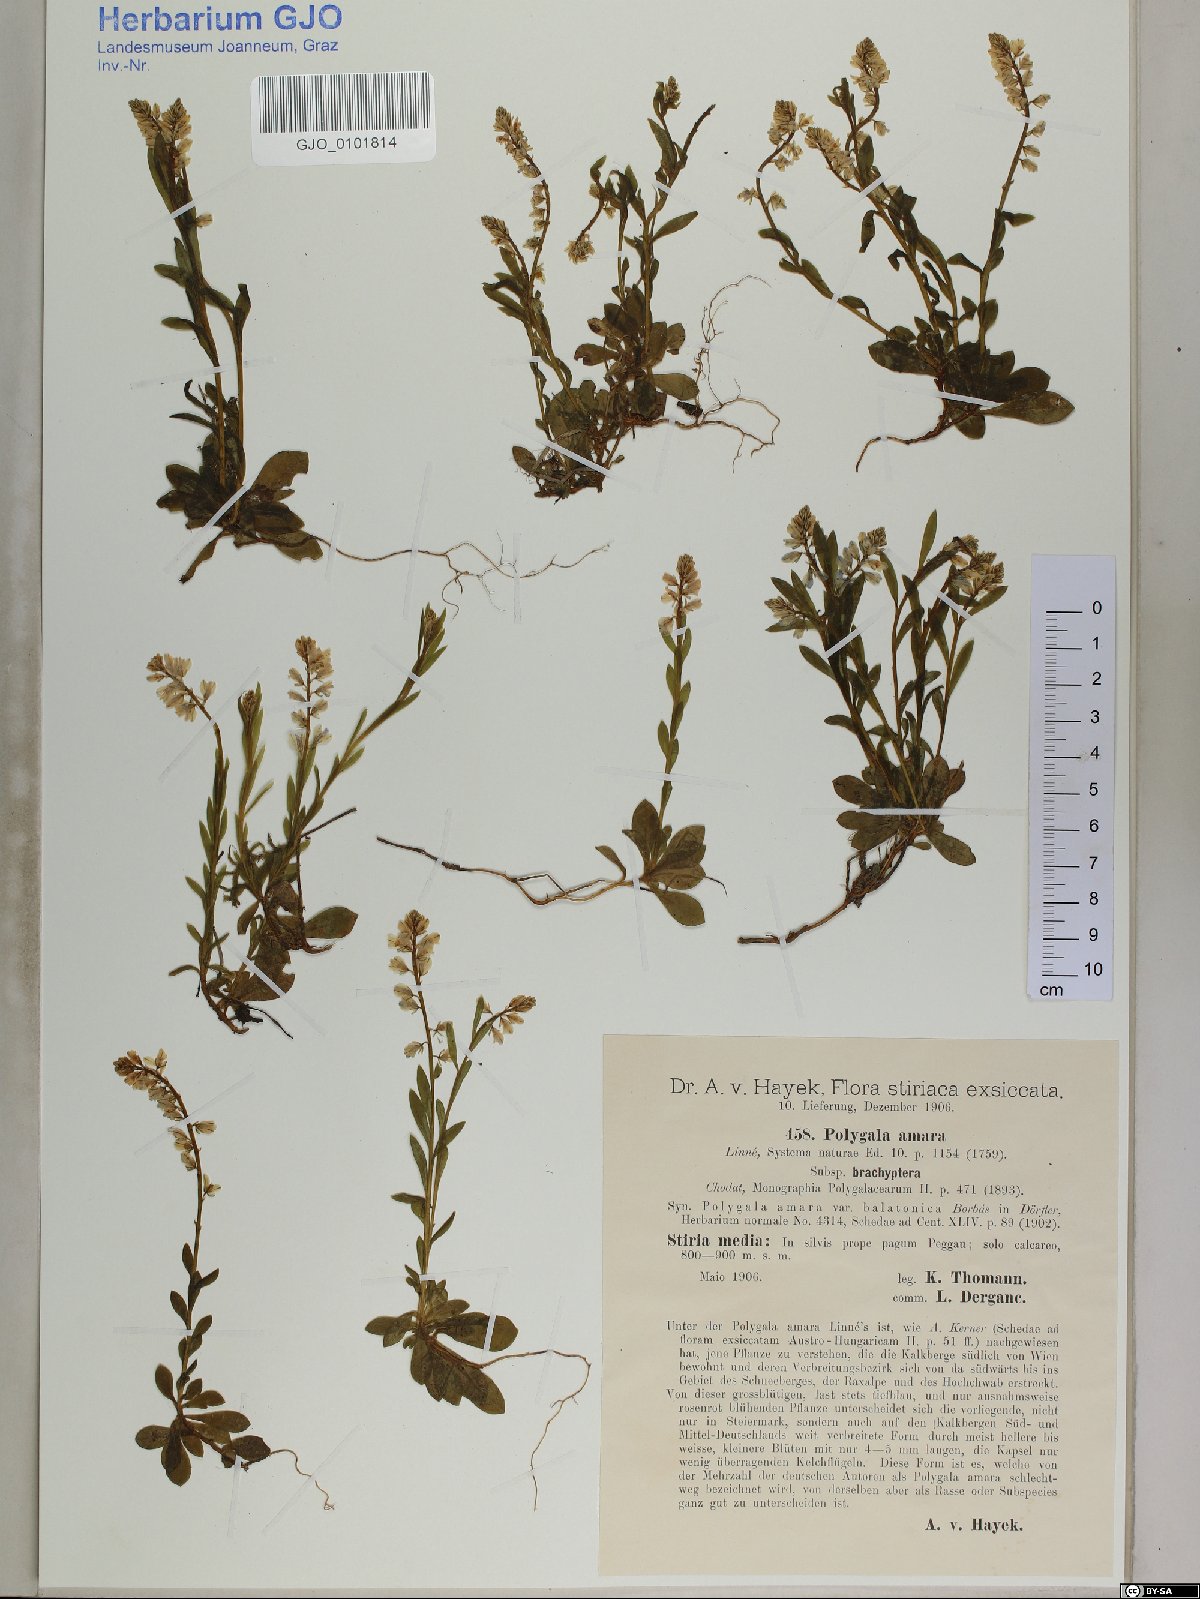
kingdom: Plantae
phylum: Tracheophyta
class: Magnoliopsida
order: Fabales
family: Polygalaceae
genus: Polygala
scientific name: Polygala amara
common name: Milkwort
